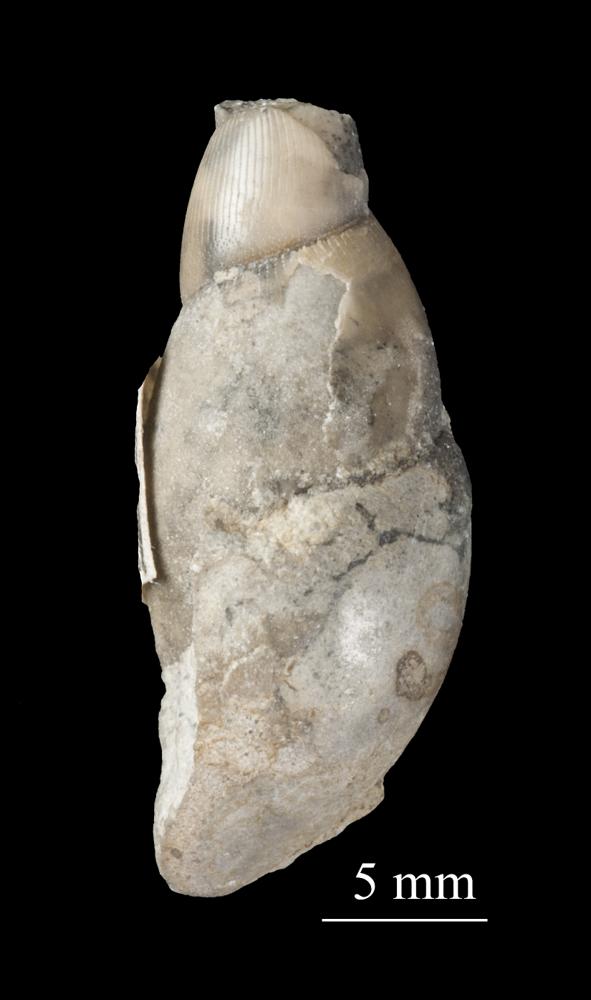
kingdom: Animalia
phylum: Mollusca
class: Gastropoda
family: Subulitidae
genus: Subulites
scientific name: Subulites priscus
